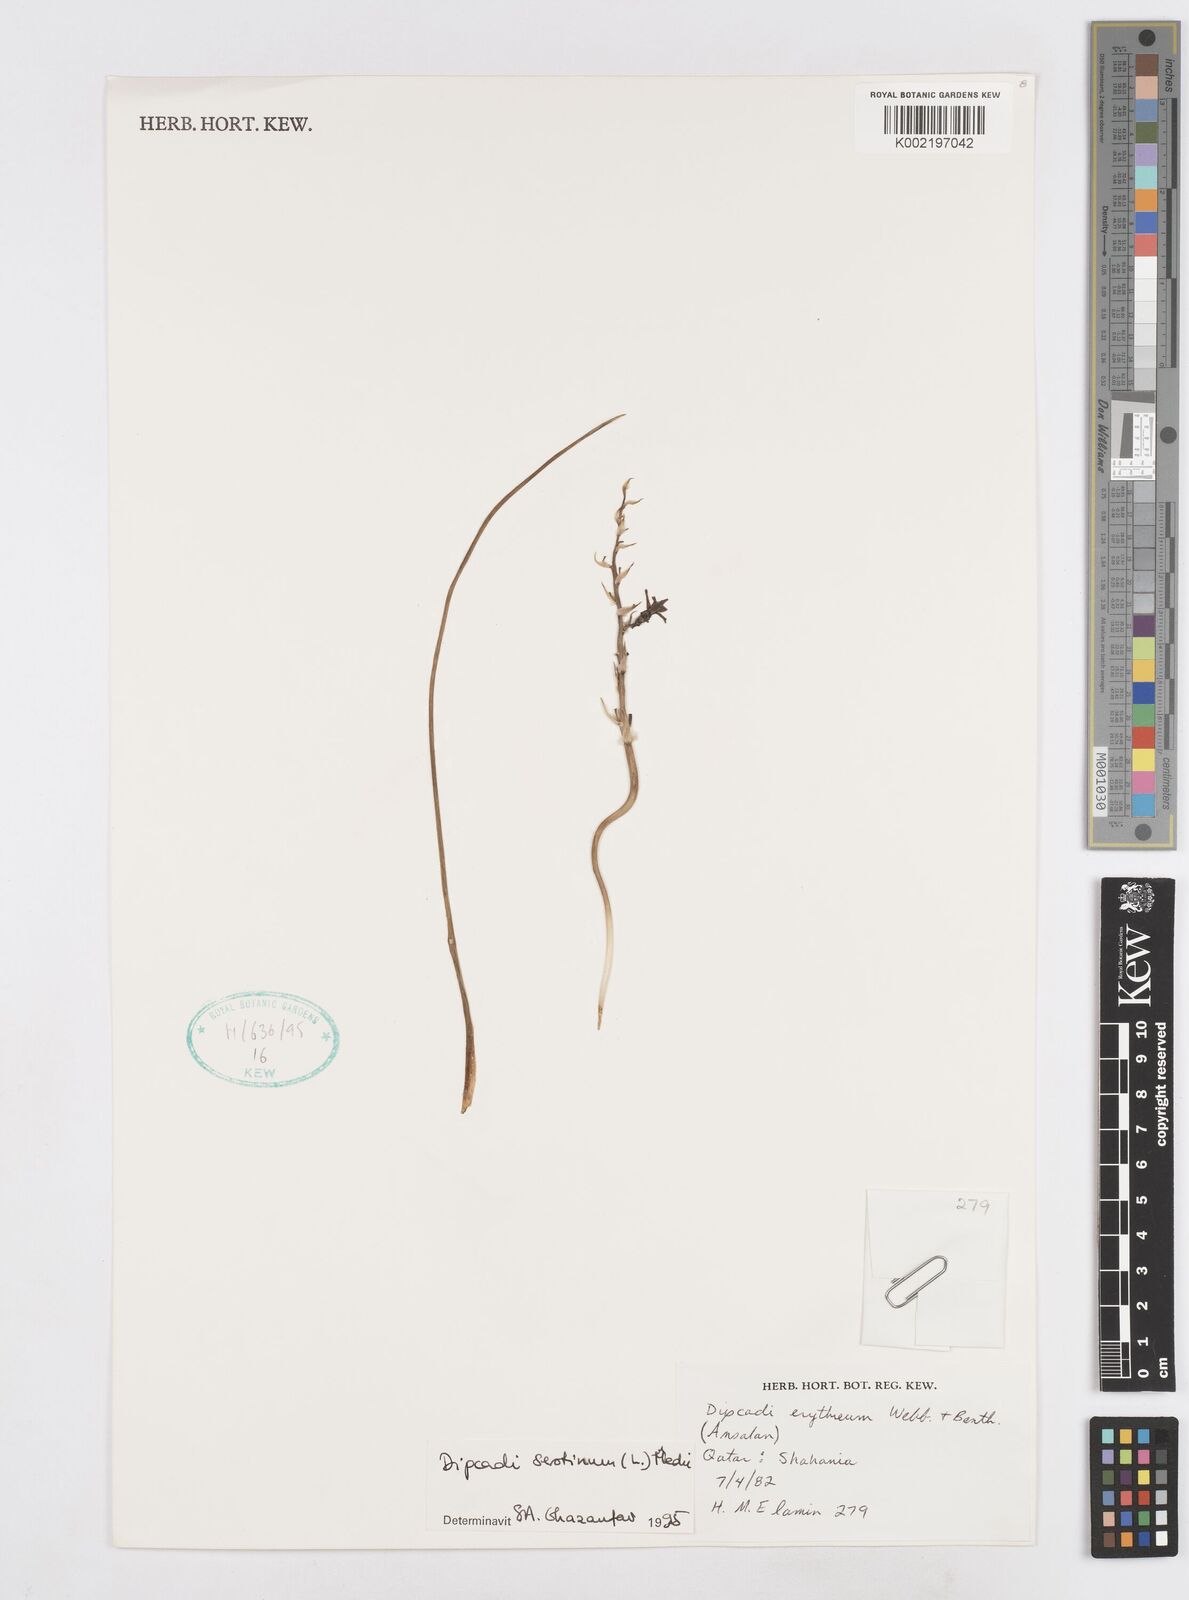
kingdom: Plantae
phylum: Tracheophyta
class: Liliopsida
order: Asparagales
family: Asparagaceae
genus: Dipcadi
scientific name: Dipcadi serotinum
